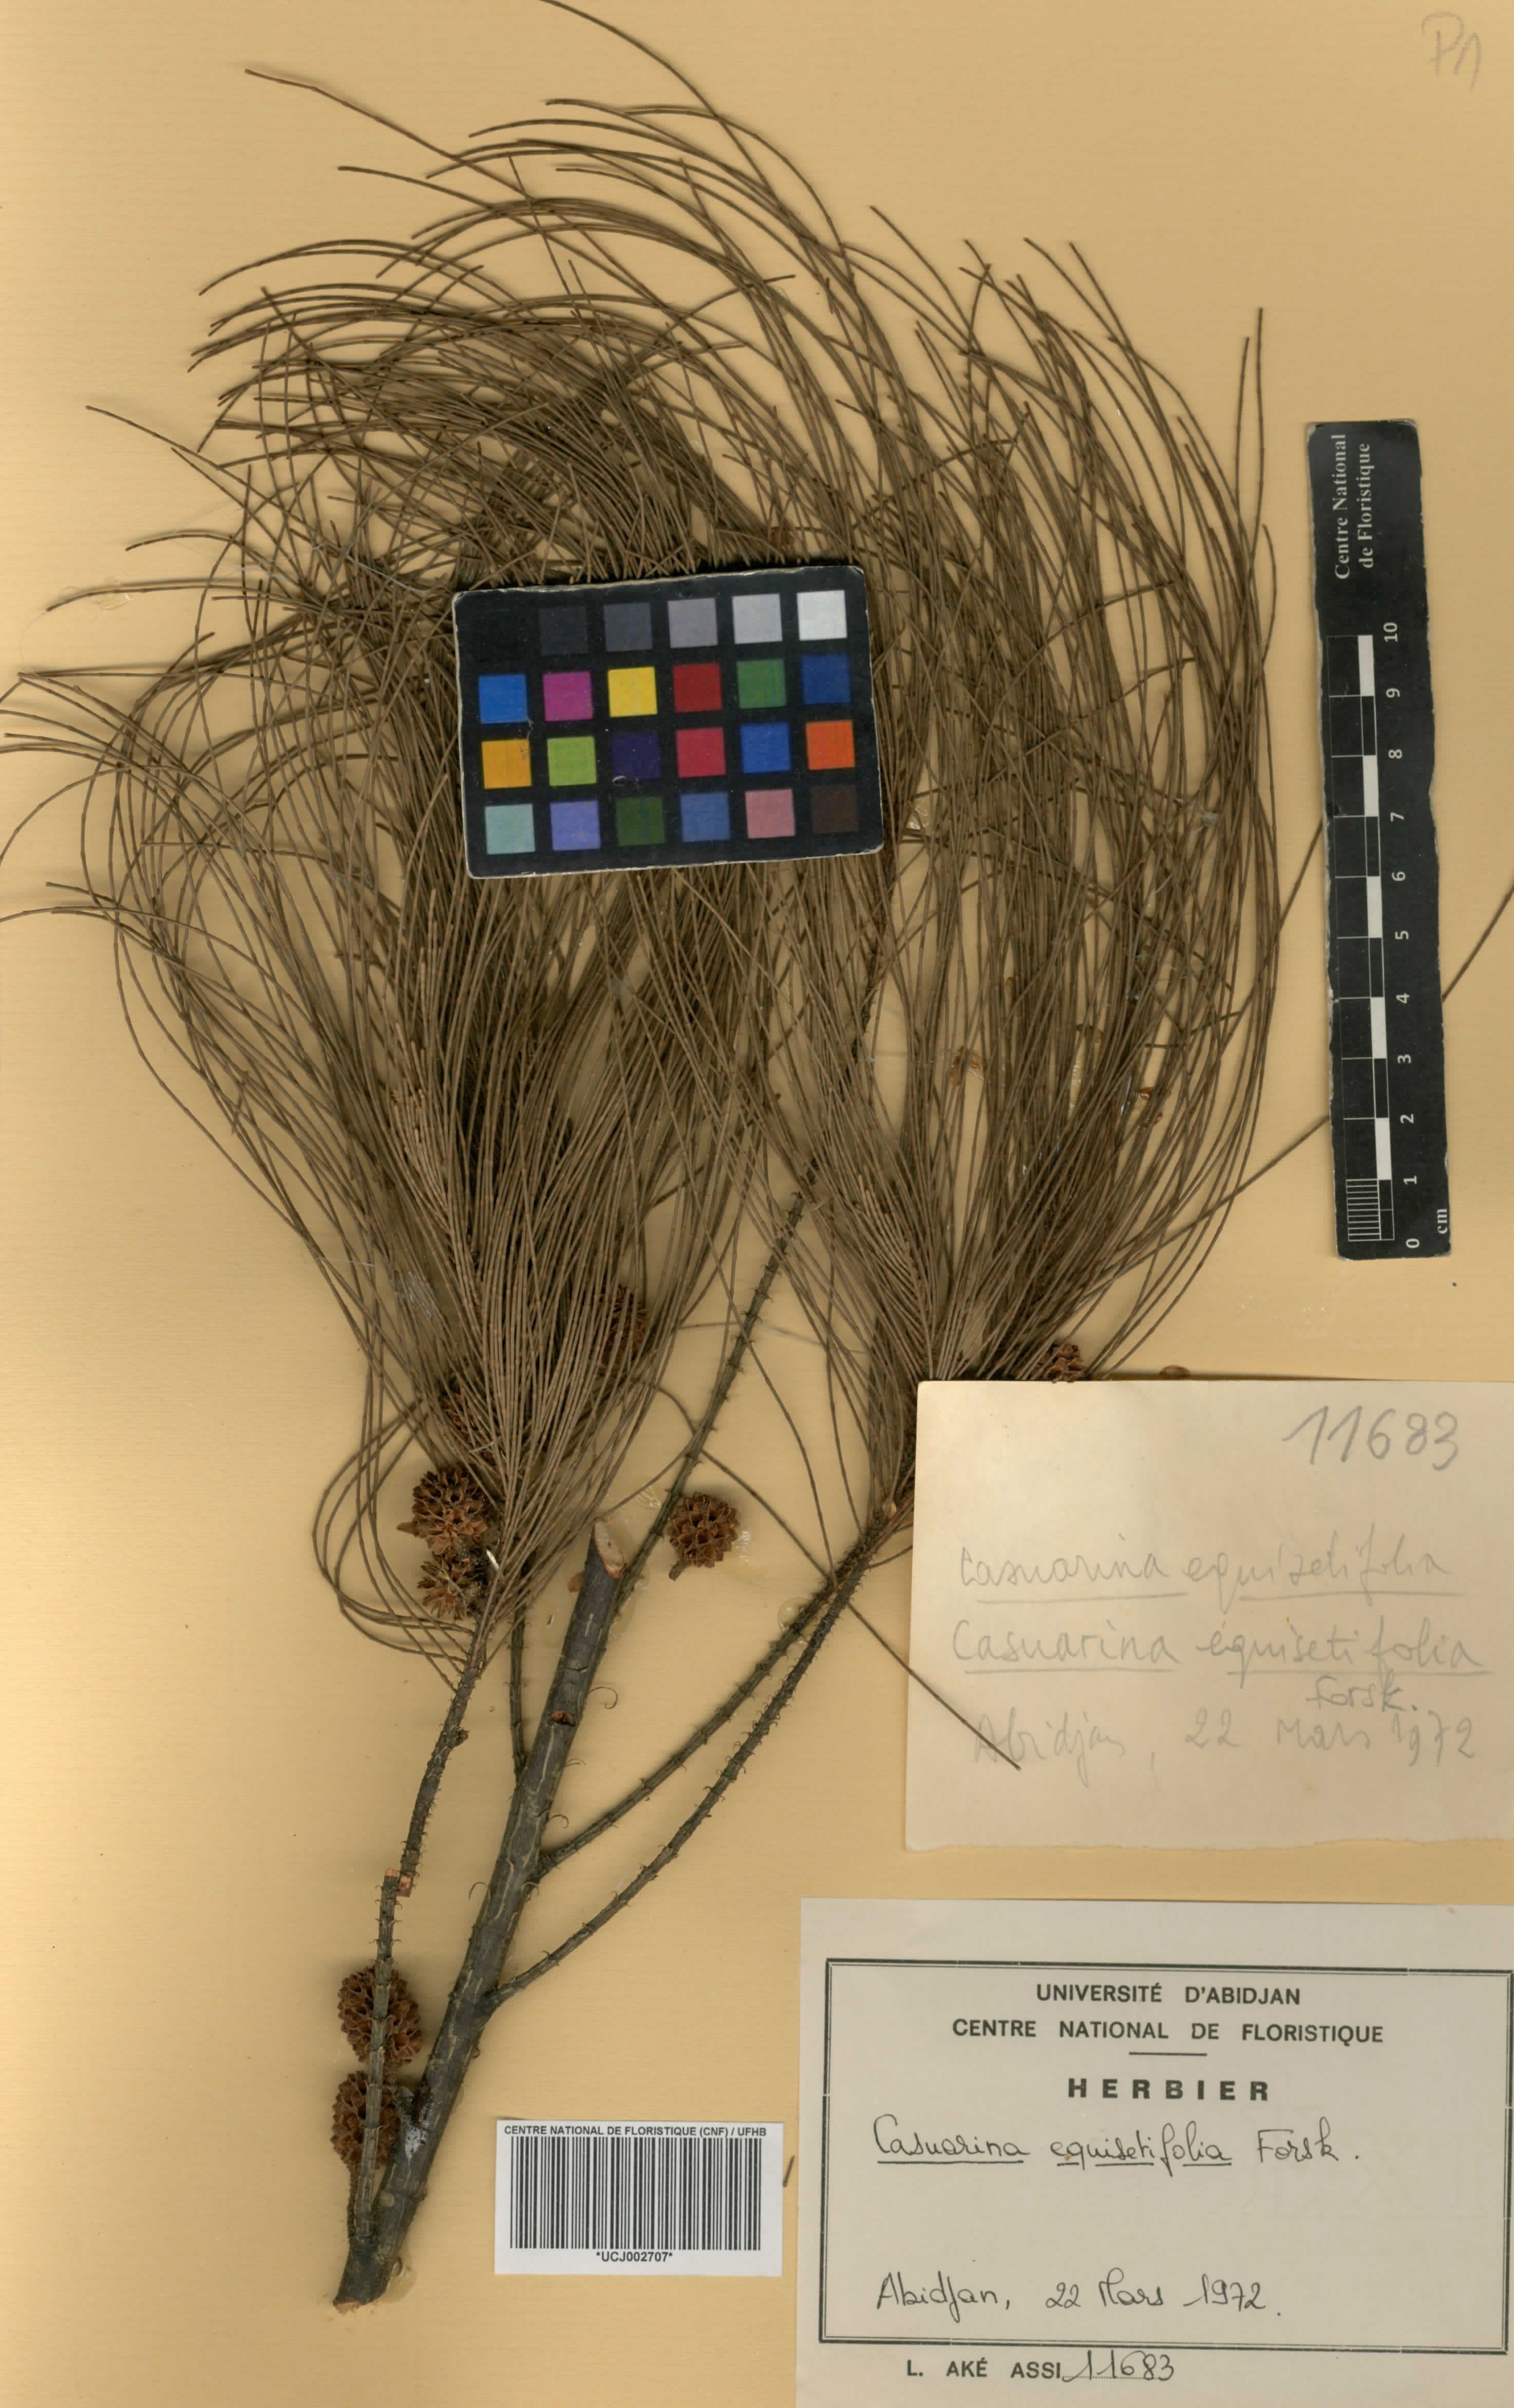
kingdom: Plantae
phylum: Tracheophyta
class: Magnoliopsida
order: Fagales
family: Casuarinaceae
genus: Casuarina
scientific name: Casuarina equisetifolia
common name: Beach sheoak
